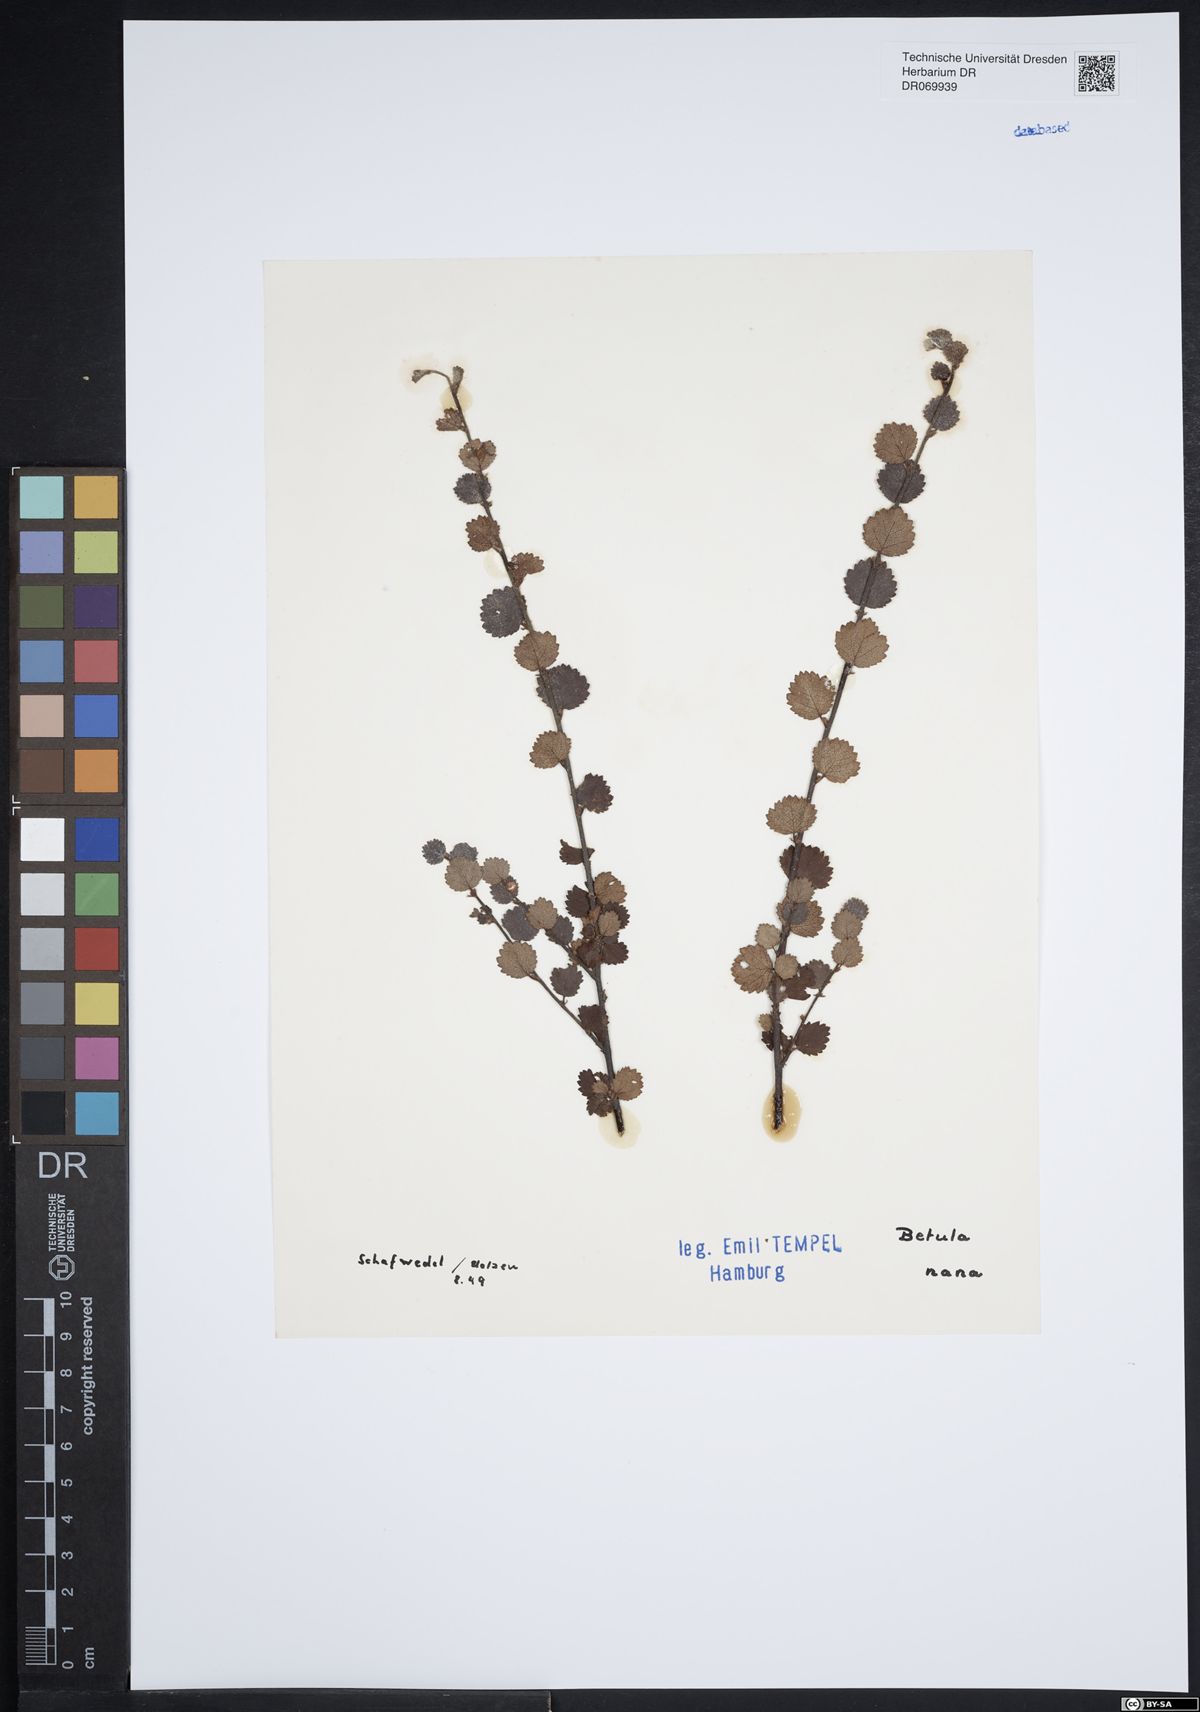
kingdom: Plantae
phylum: Tracheophyta
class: Magnoliopsida
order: Fagales
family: Betulaceae
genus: Betula
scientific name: Betula nana
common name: Arctic dwarf birch
